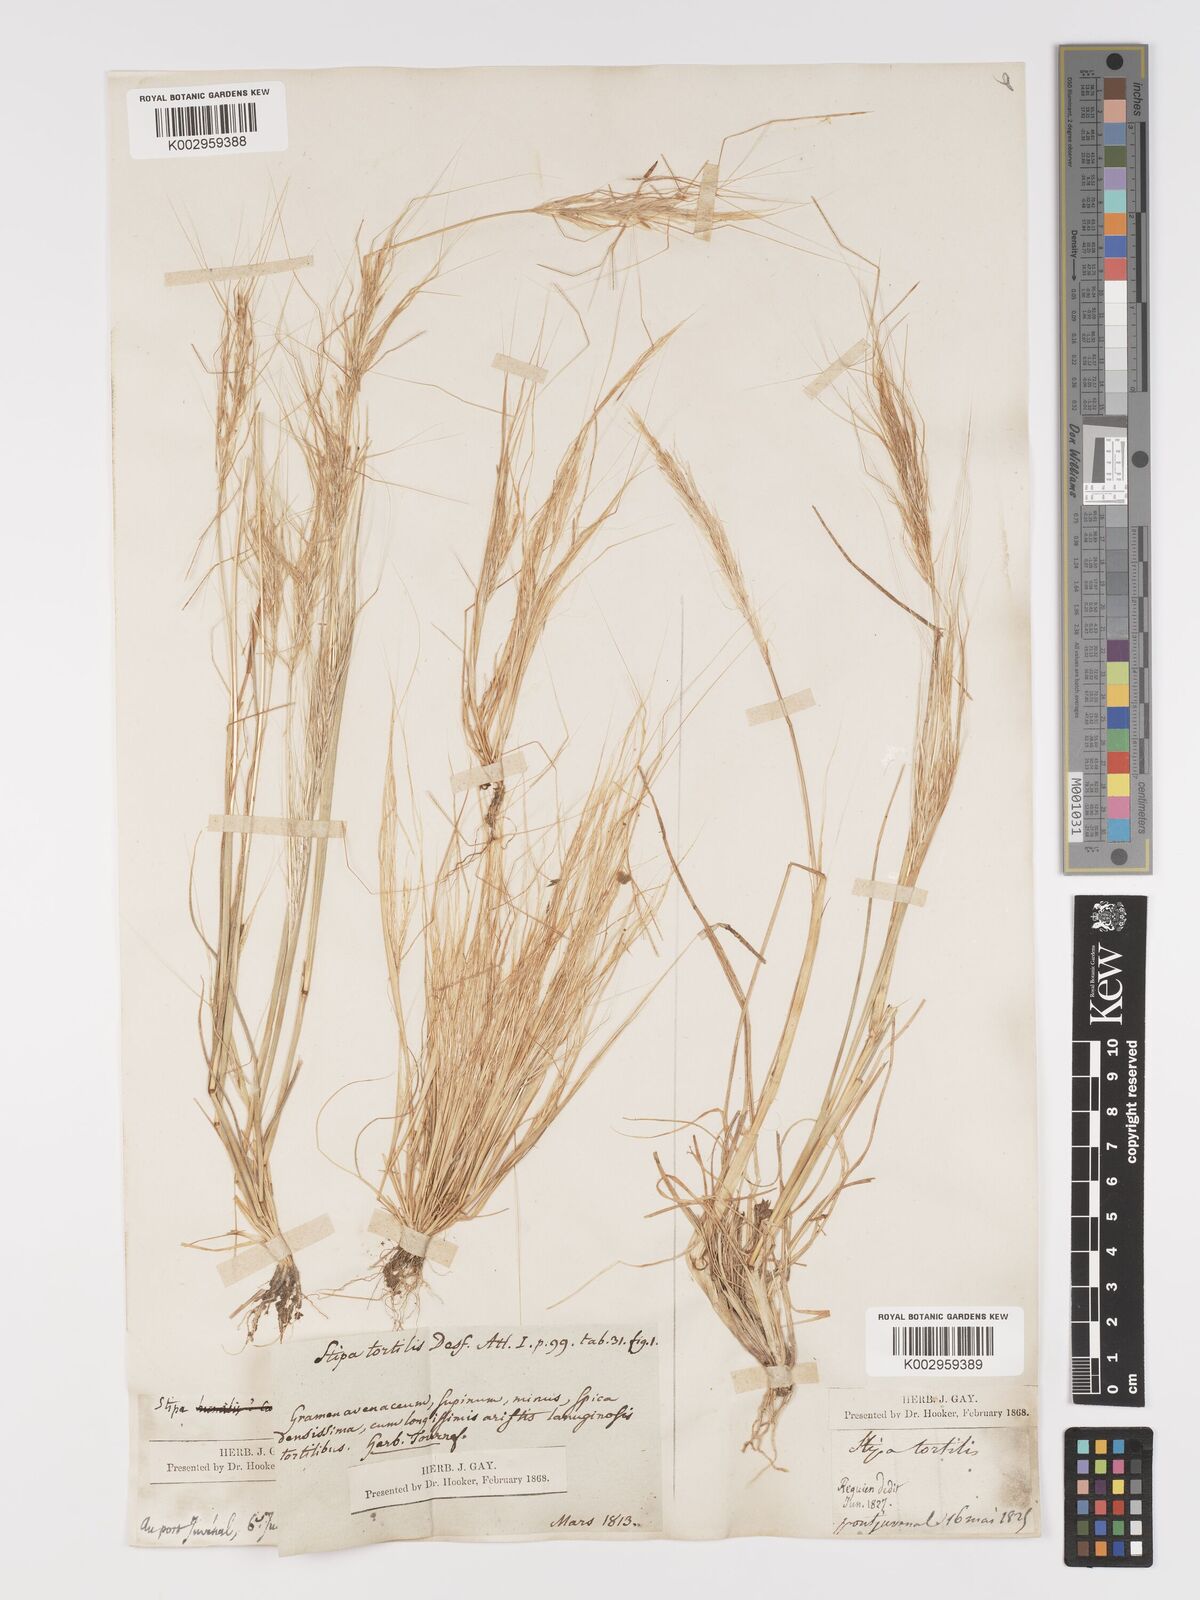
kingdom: Plantae
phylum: Tracheophyta
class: Liliopsida
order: Poales
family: Poaceae
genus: Stipellula
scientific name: Stipellula capensis
